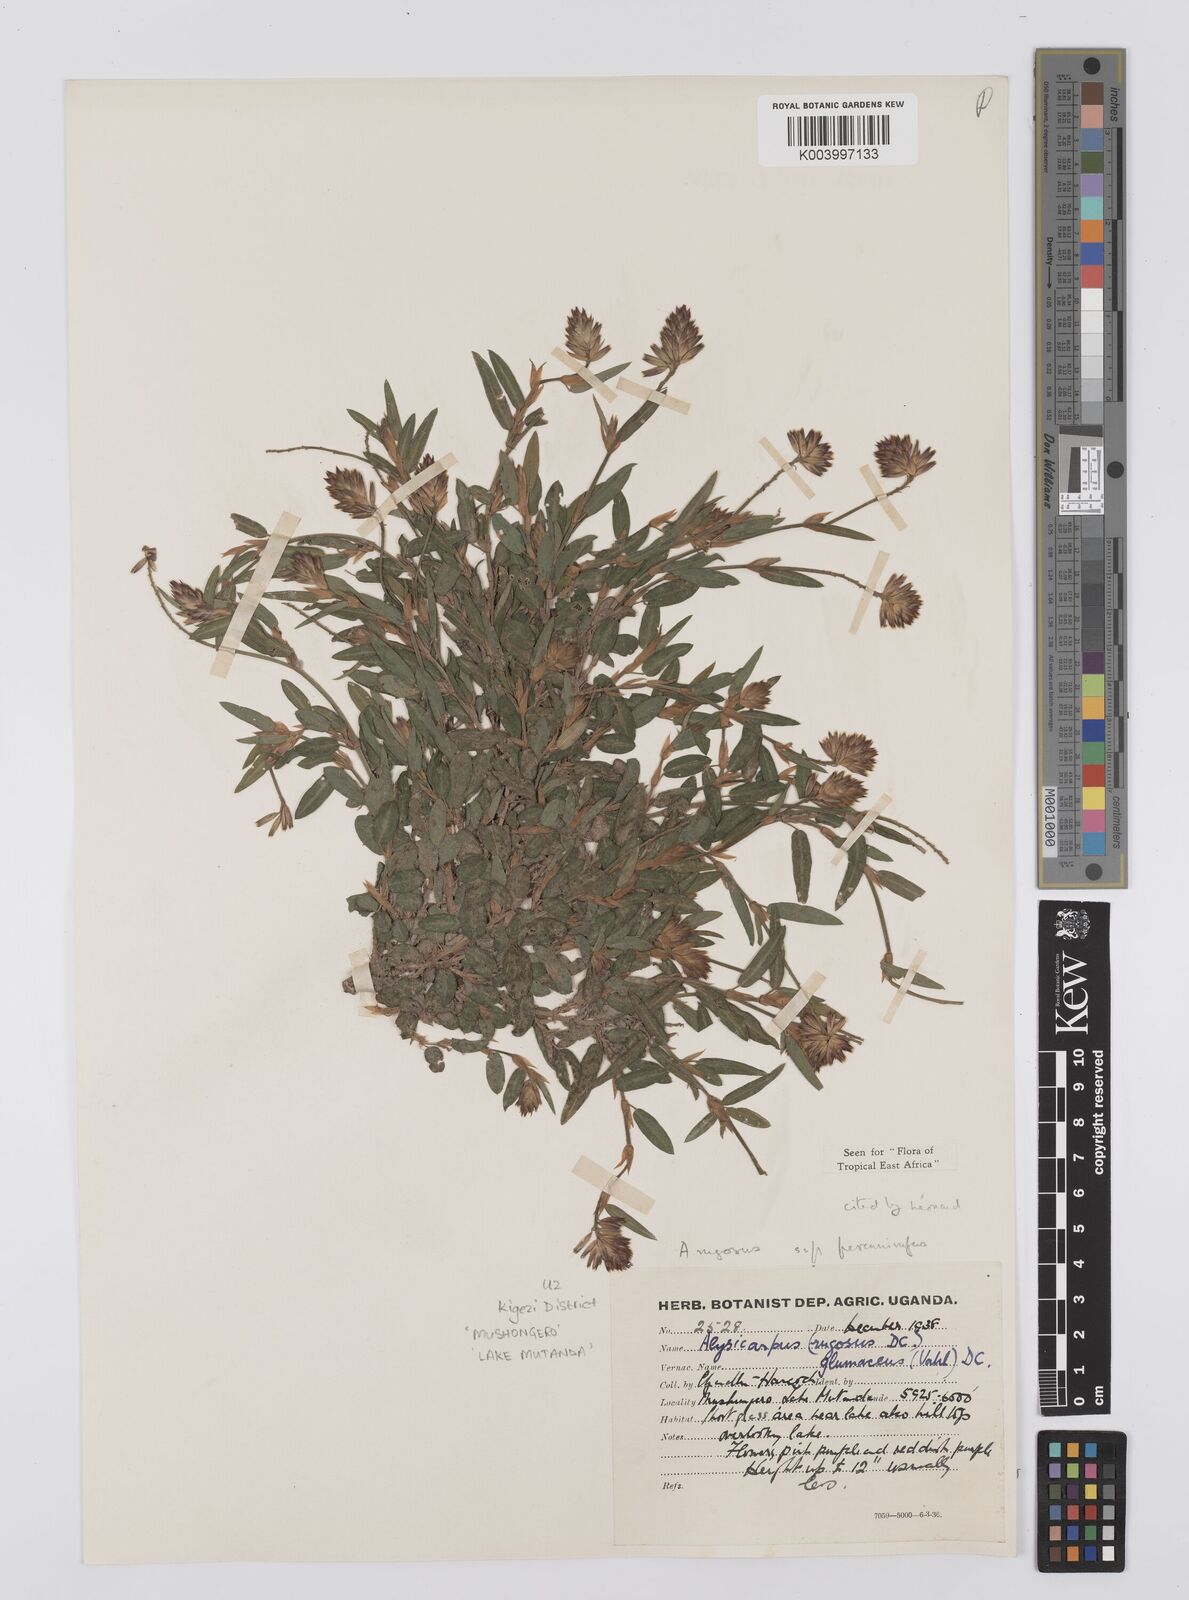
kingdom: Plantae
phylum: Tracheophyta
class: Magnoliopsida
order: Fabales
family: Fabaceae
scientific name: Fabaceae
